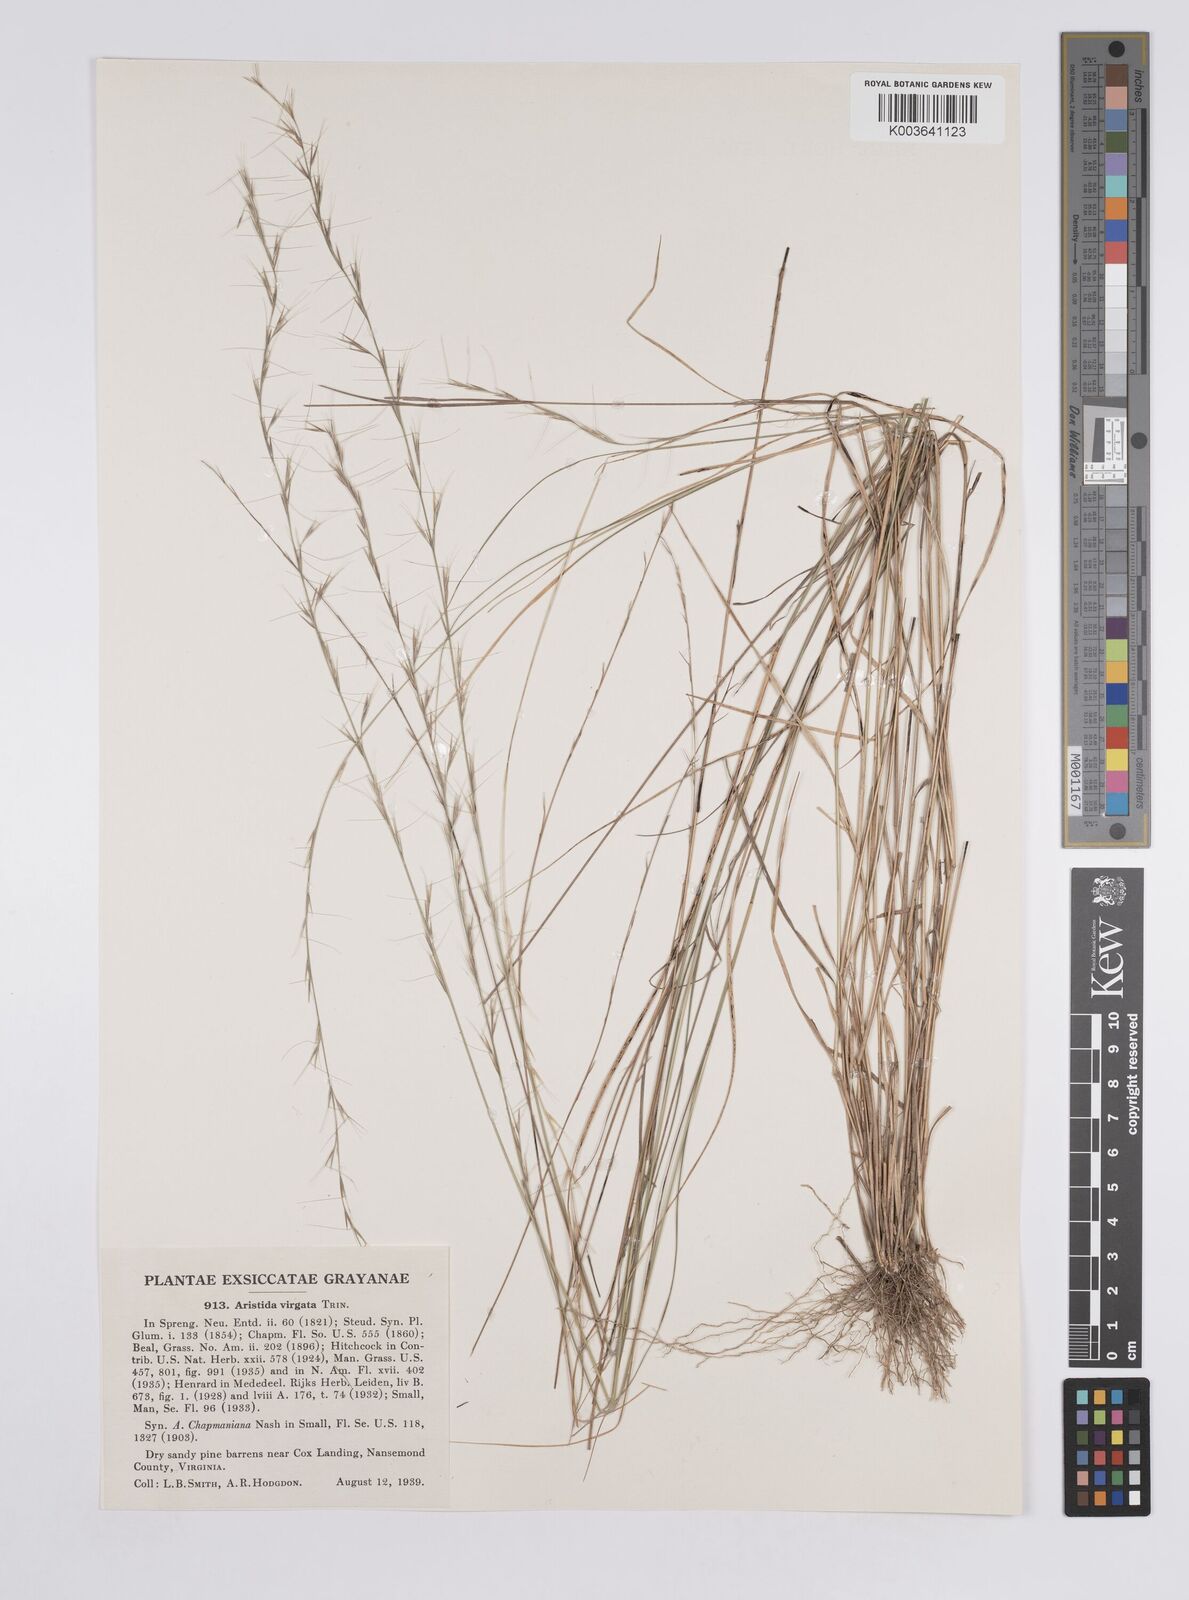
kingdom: Plantae
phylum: Tracheophyta
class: Liliopsida
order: Poales
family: Poaceae
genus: Aristida
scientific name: Aristida purpurascens
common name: Arrow-feather
